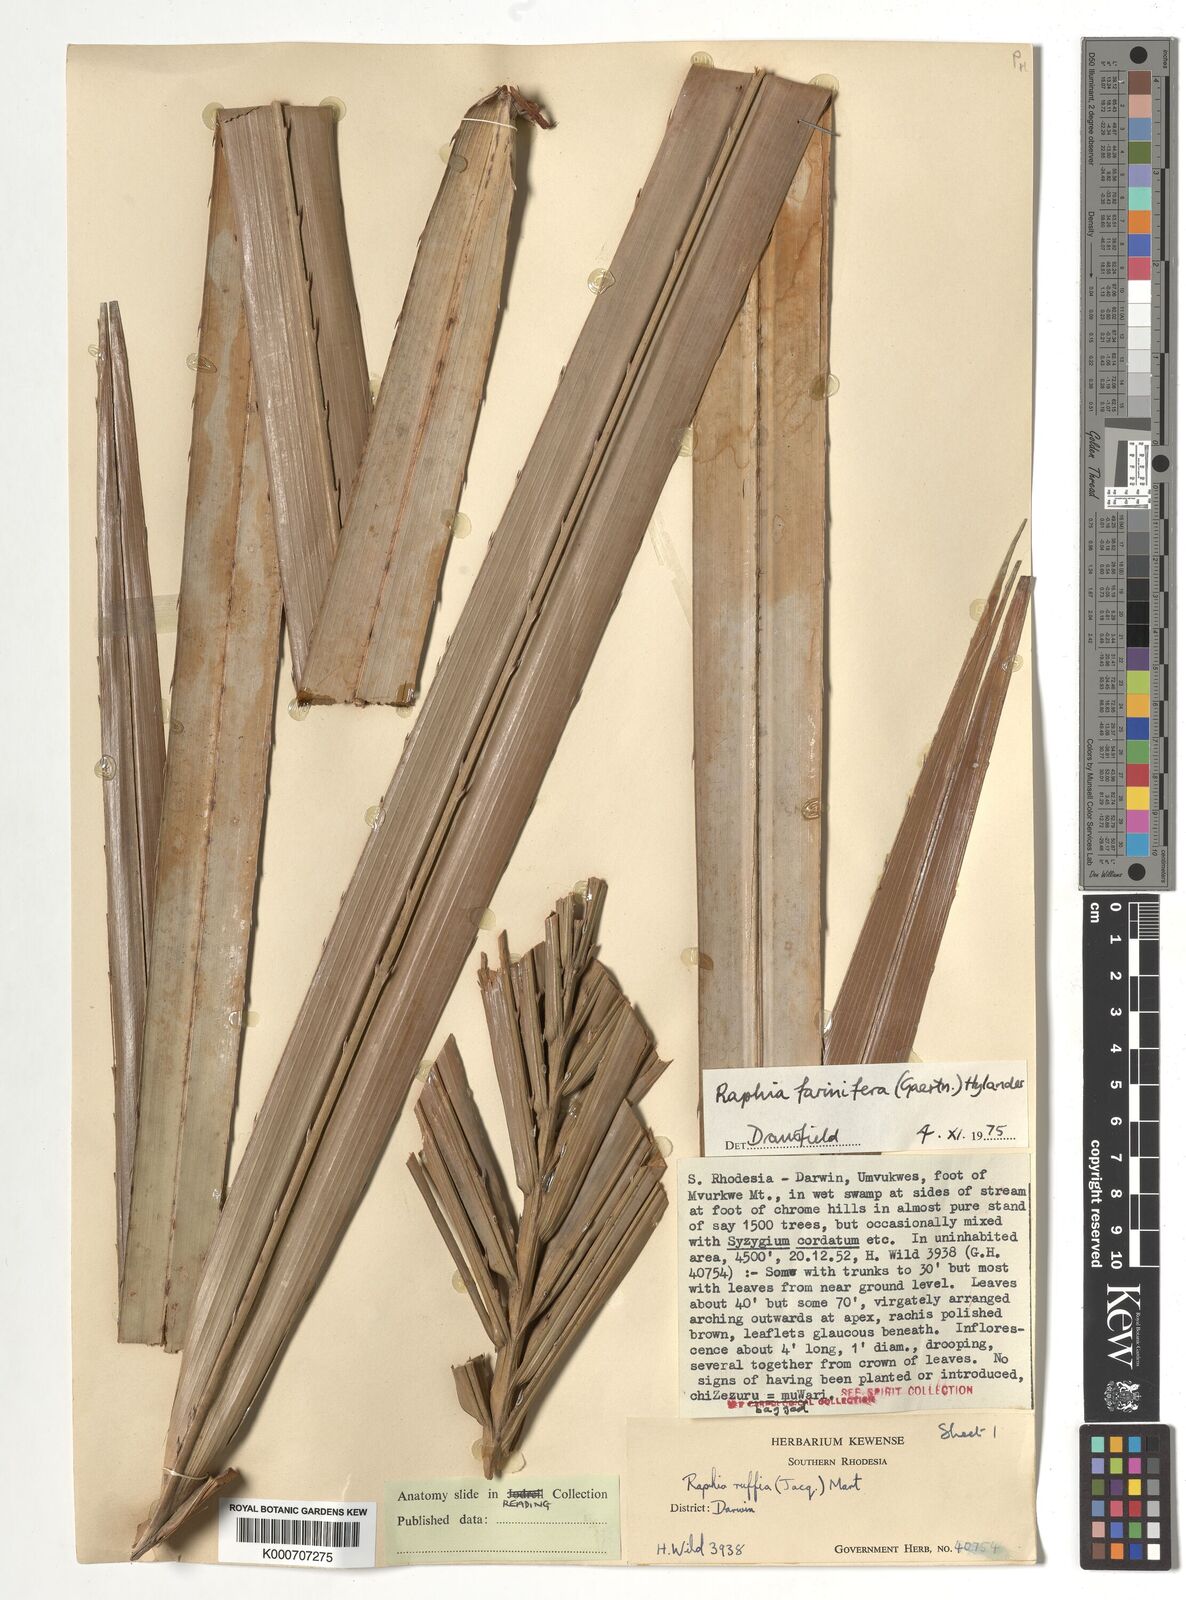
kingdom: Plantae
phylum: Tracheophyta
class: Liliopsida
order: Arecales
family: Arecaceae
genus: Raphia
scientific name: Raphia farinifera
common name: Raphia palm
